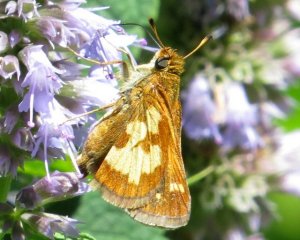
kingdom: Animalia
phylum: Arthropoda
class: Insecta
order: Lepidoptera
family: Hesperiidae
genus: Polites
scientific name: Polites coras
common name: Peck's Skipper
